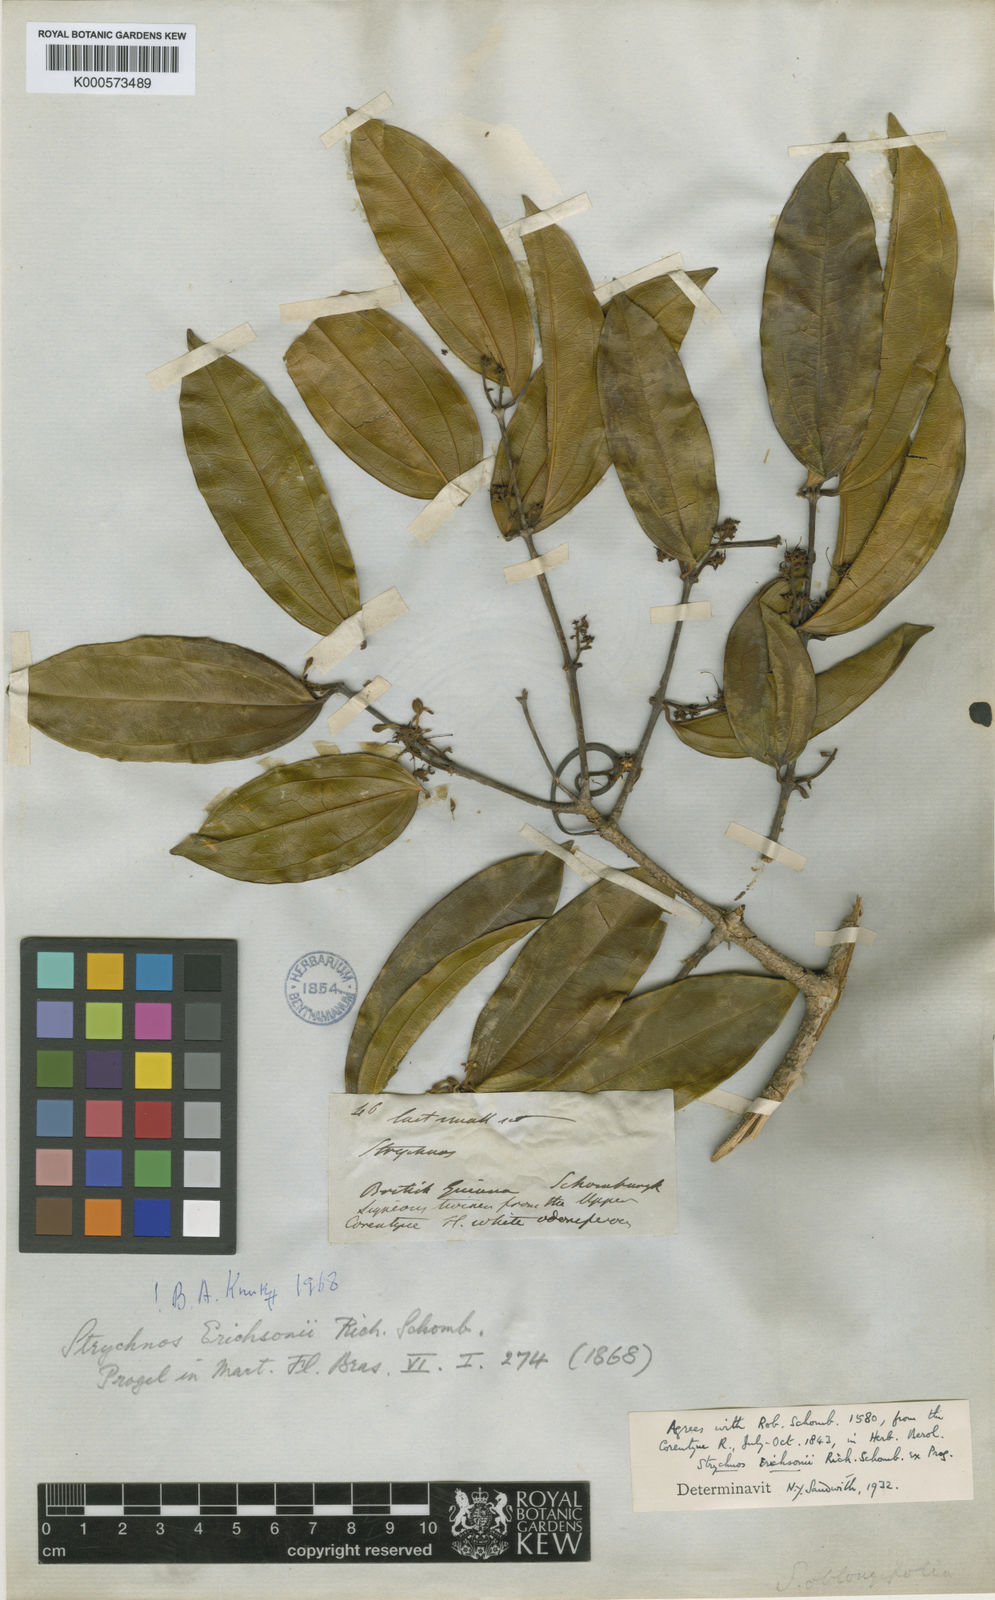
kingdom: Plantae
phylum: Tracheophyta
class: Magnoliopsida
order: Gentianales
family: Loganiaceae
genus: Strychnos
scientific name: Strychnos erichsonii
